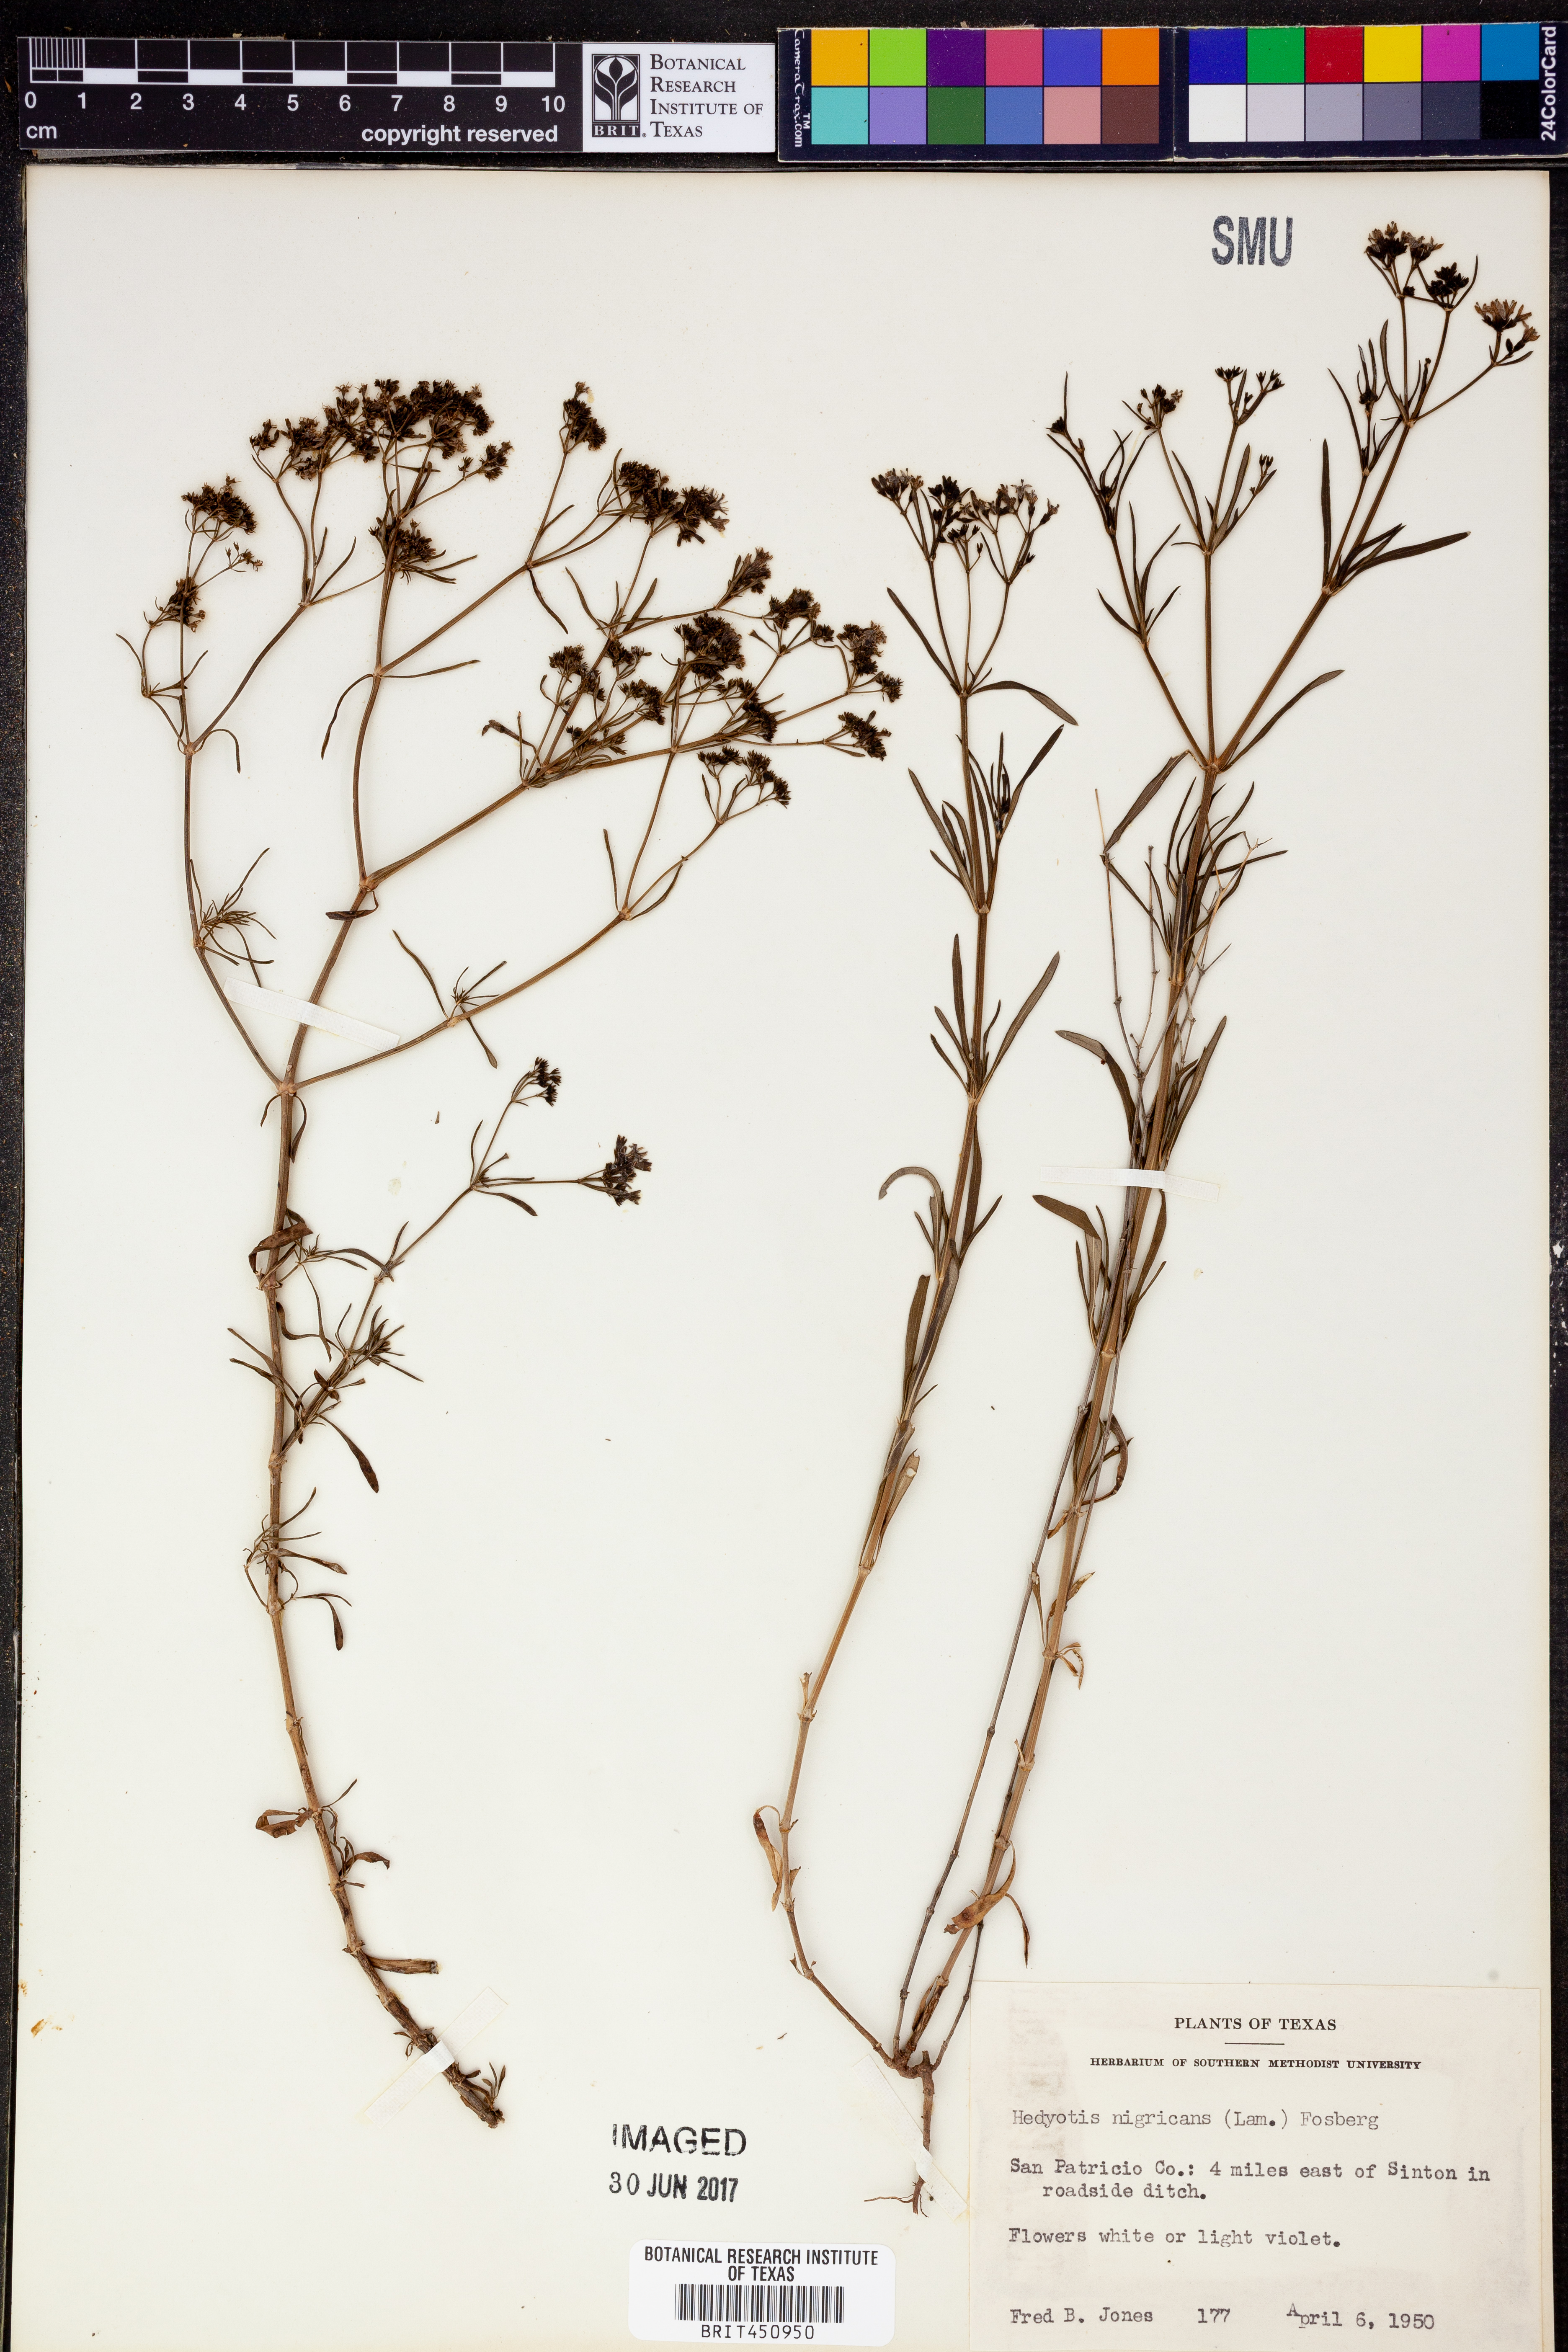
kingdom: Plantae
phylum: Tracheophyta
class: Magnoliopsida
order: Gentianales
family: Rubiaceae
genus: Stenaria
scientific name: Stenaria nigricans
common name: Diamondflowers
